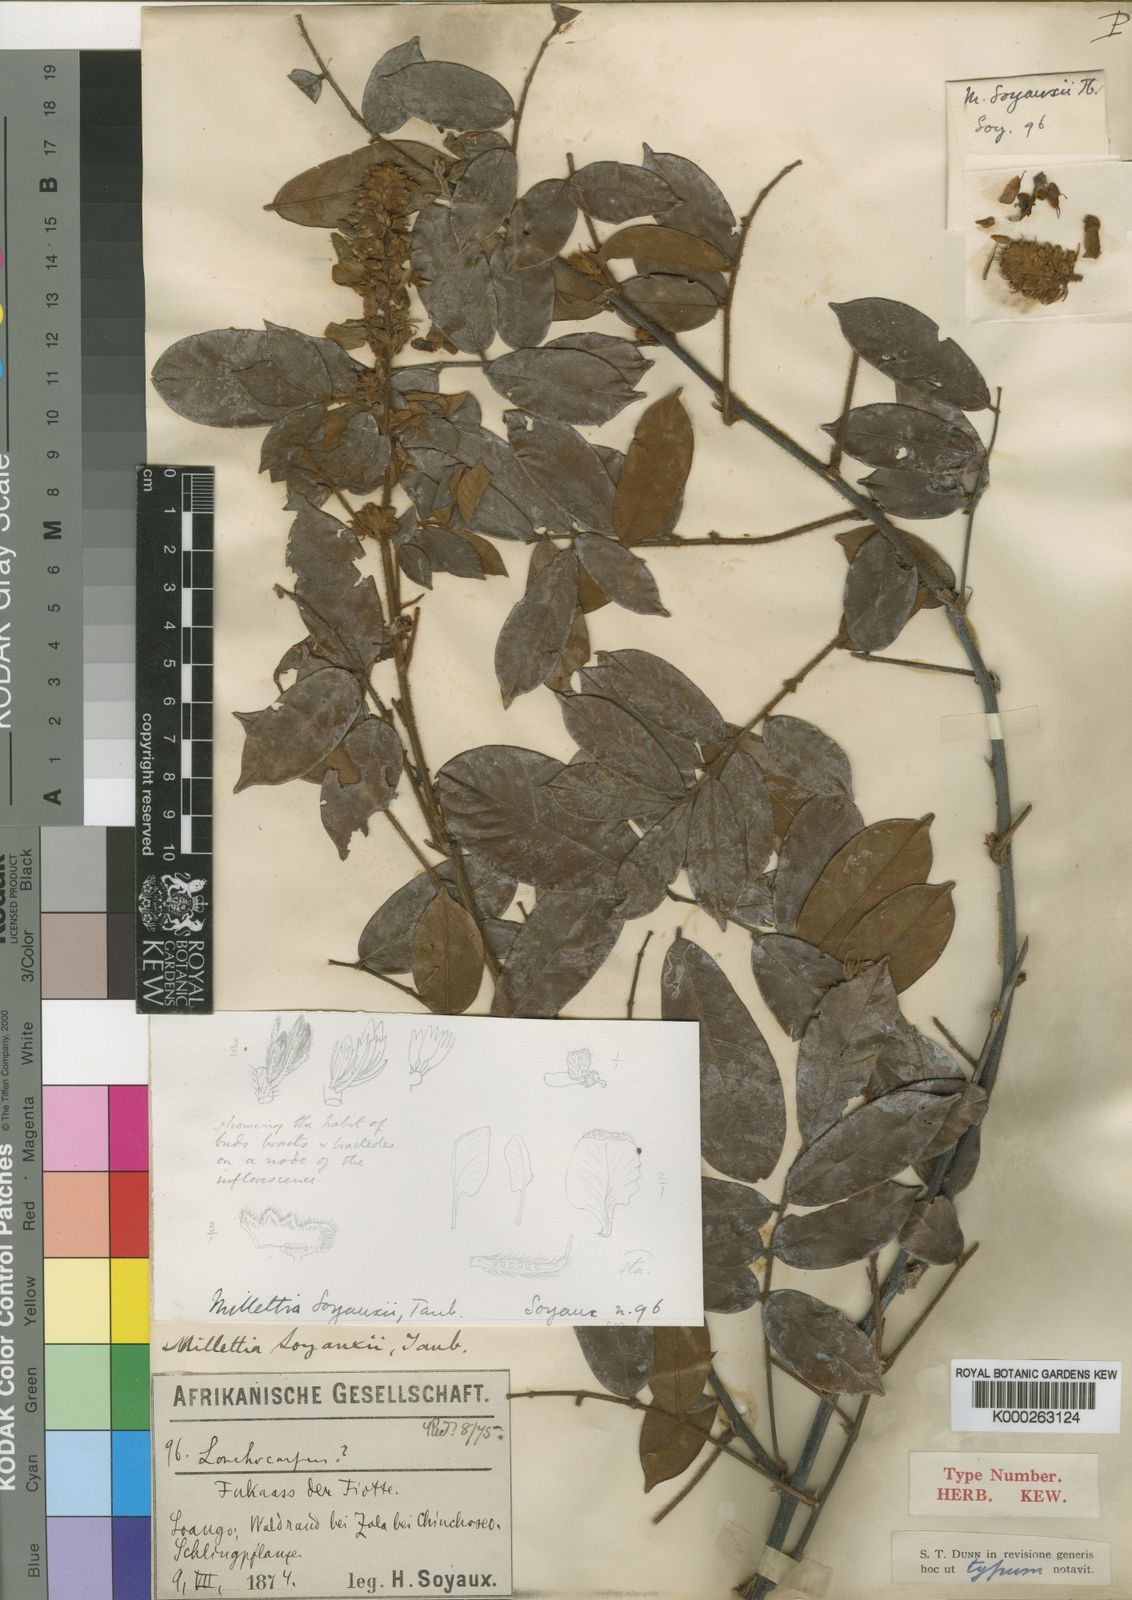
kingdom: Plantae
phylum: Tracheophyta
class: Magnoliopsida
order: Fabales
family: Fabaceae
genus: Millettia
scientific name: Millettia soyauxii
